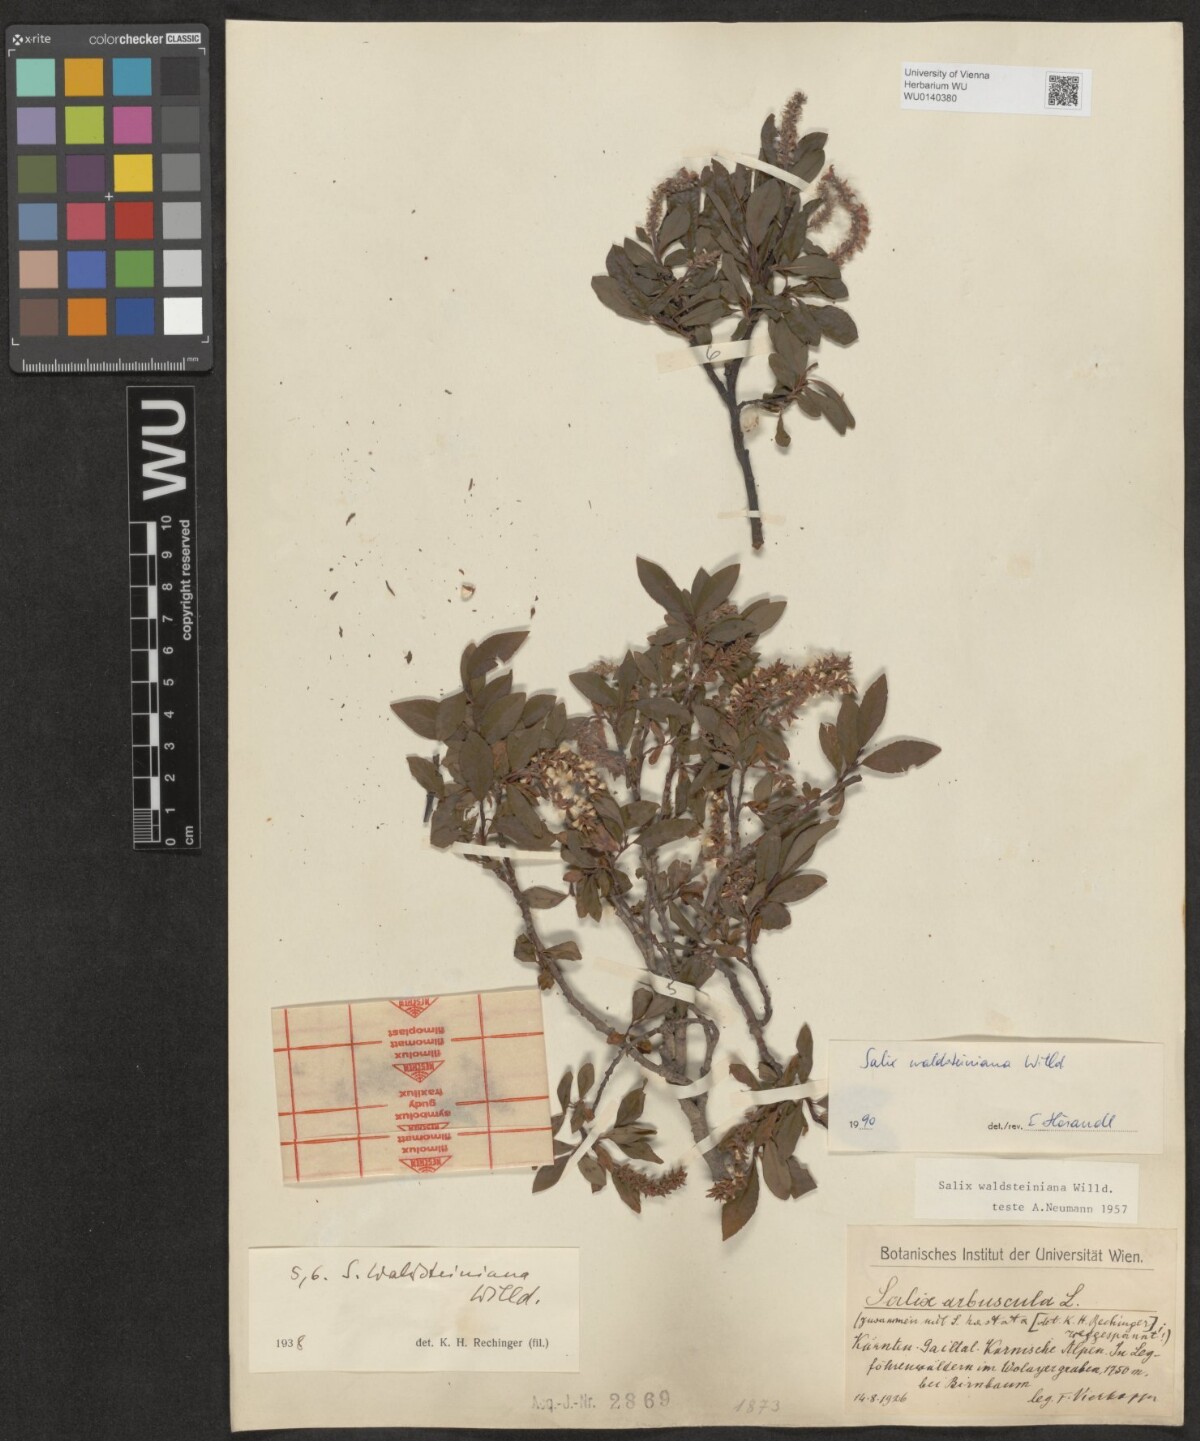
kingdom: Plantae
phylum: Tracheophyta
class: Magnoliopsida
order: Malpighiales
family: Salicaceae
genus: Salix
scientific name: Salix waldsteiniana
